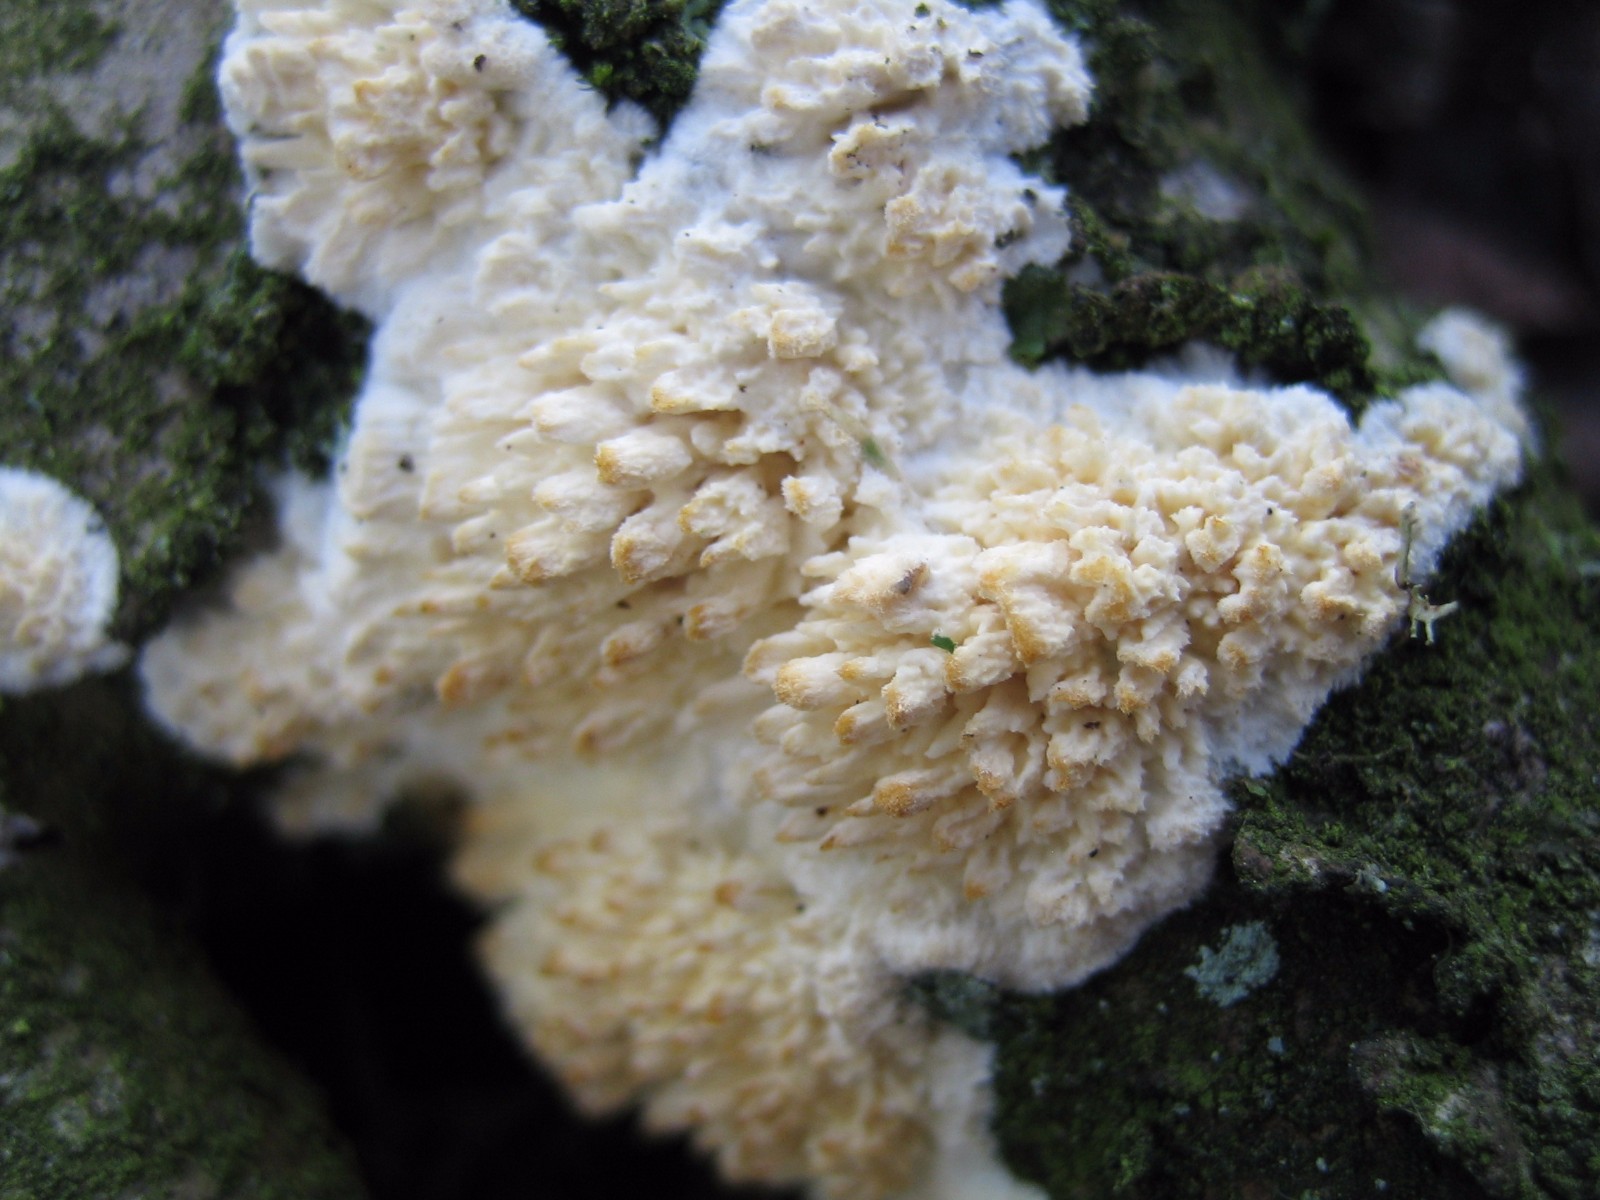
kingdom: Fungi
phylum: Basidiomycota
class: Agaricomycetes
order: Hymenochaetales
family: Schizoporaceae
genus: Xylodon
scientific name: Xylodon radula
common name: grovtandet kalkskind
